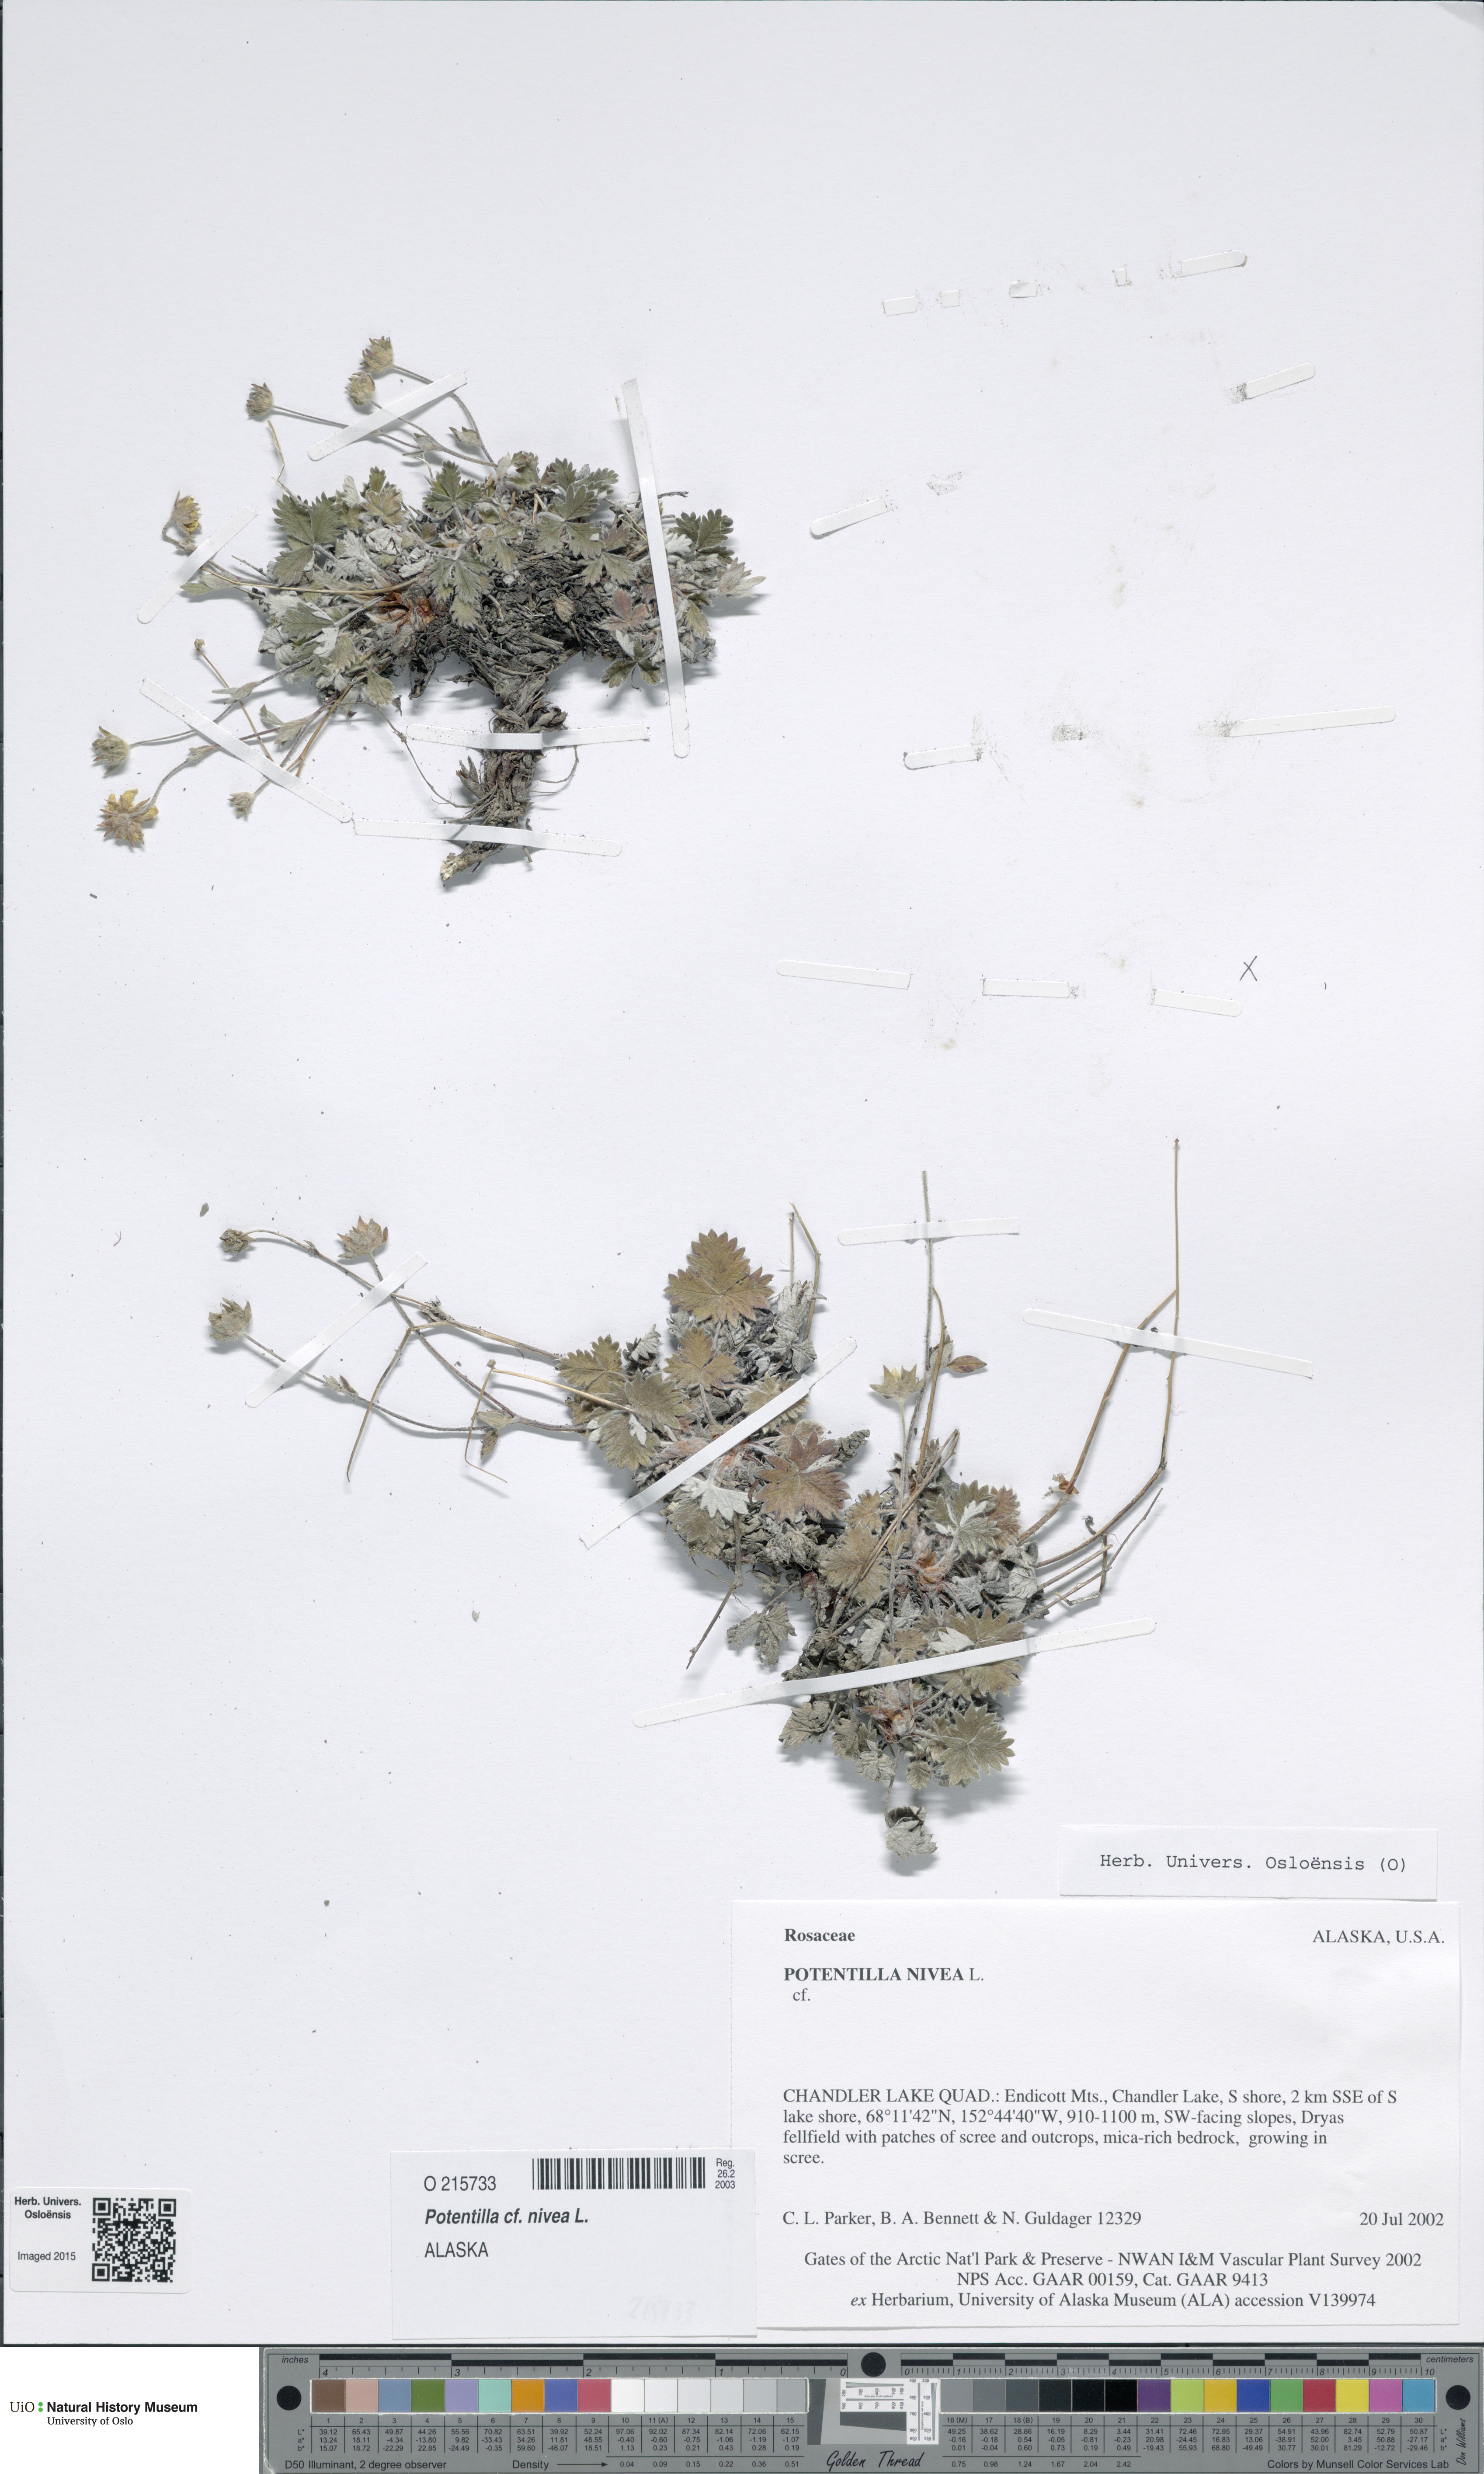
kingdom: Plantae
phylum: Tracheophyta
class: Magnoliopsida
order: Rosales
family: Rosaceae
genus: Potentilla
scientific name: Potentilla arenosa
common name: Bluff cinquefoil
